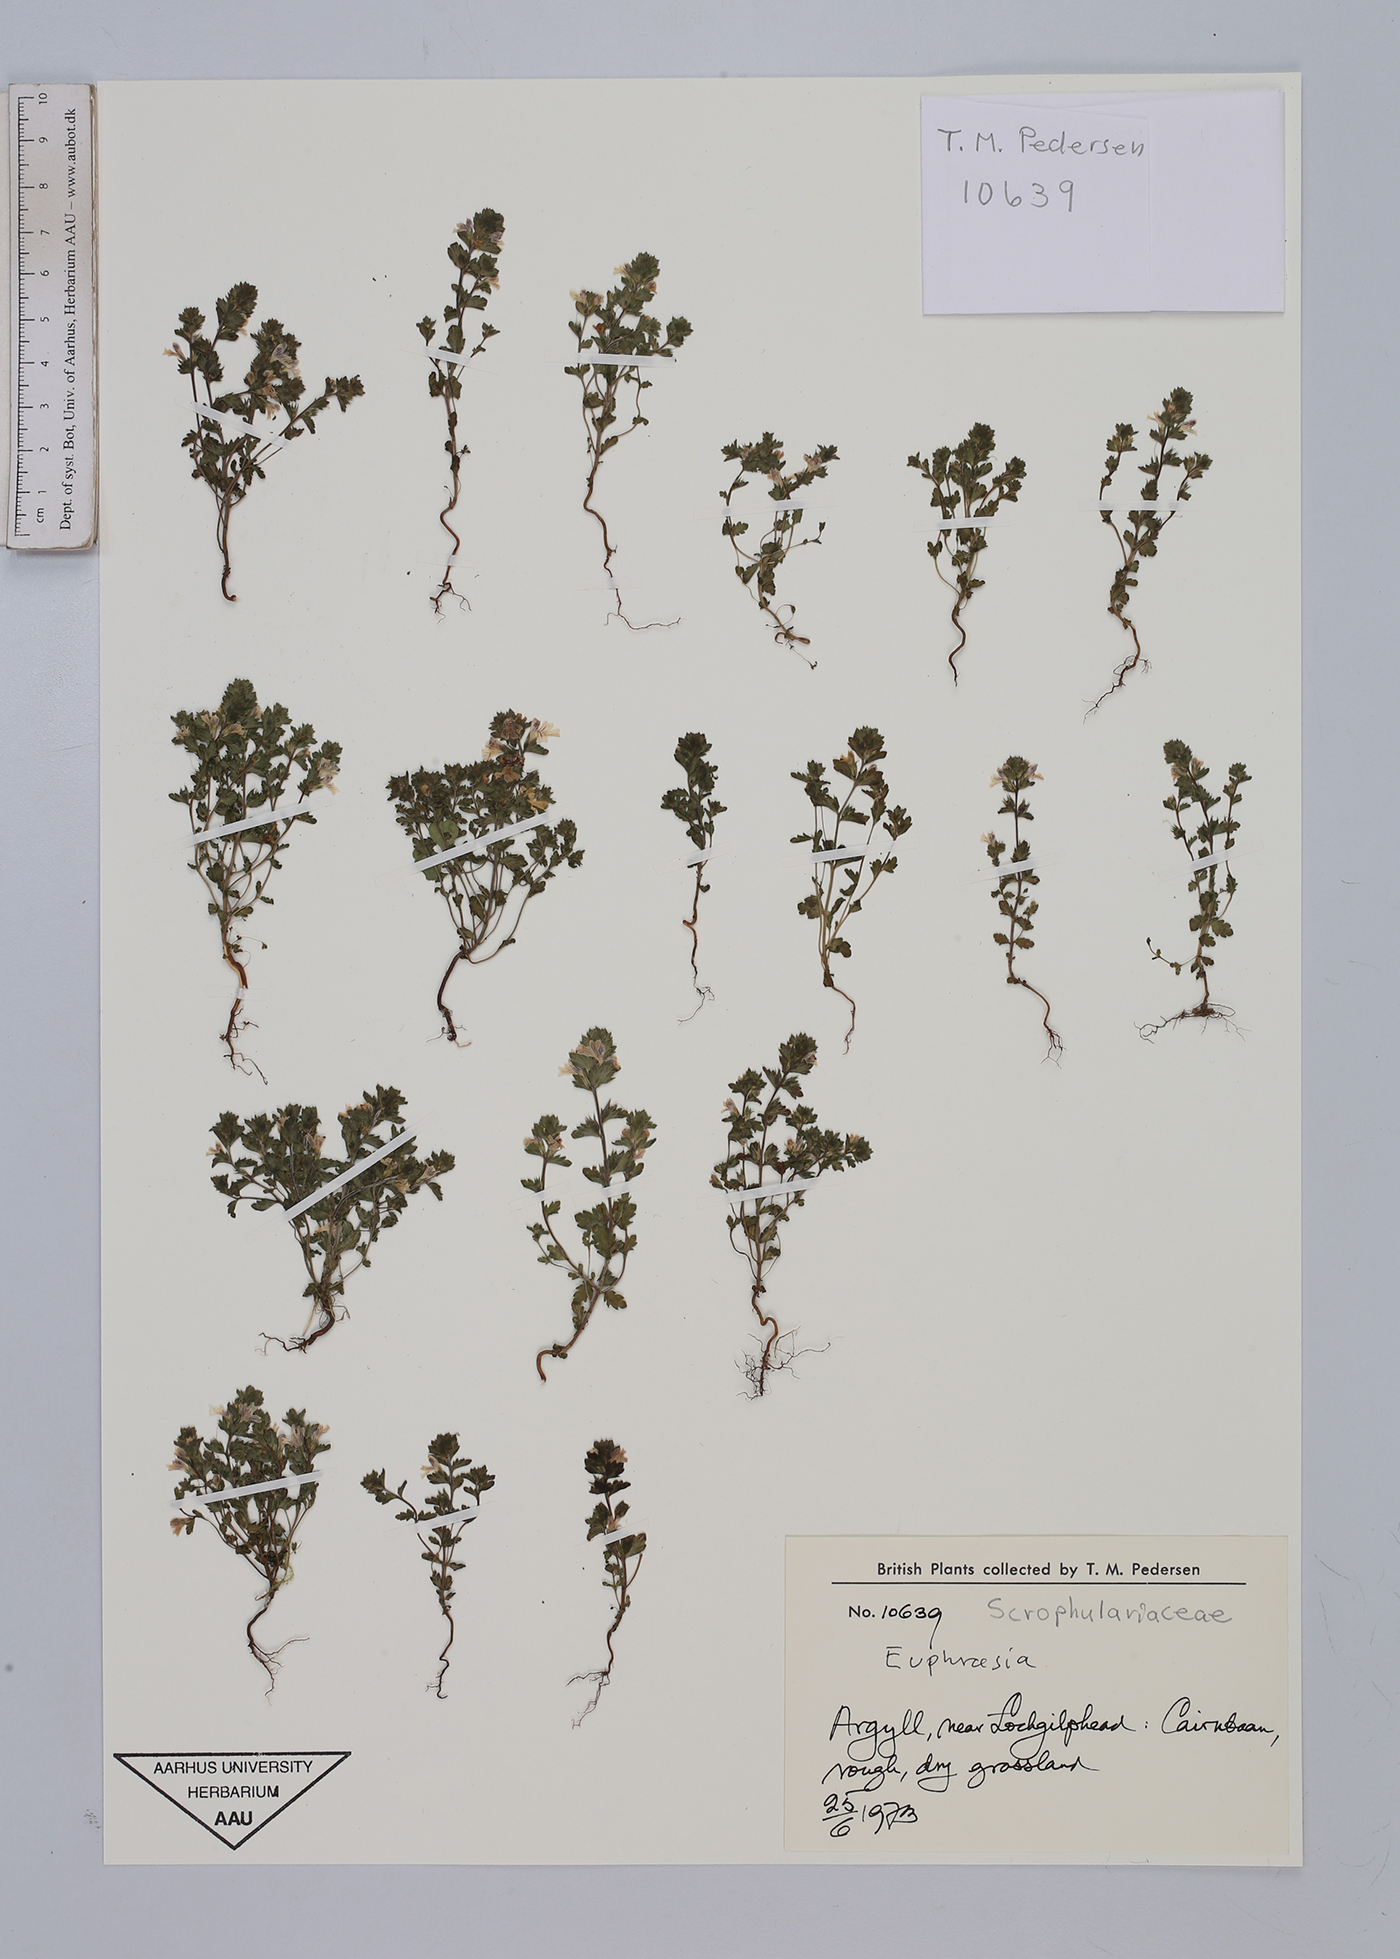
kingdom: Plantae
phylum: Tracheophyta
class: Magnoliopsida
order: Lamiales
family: Orobanchaceae
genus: Euphrasia
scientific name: Euphrasia
